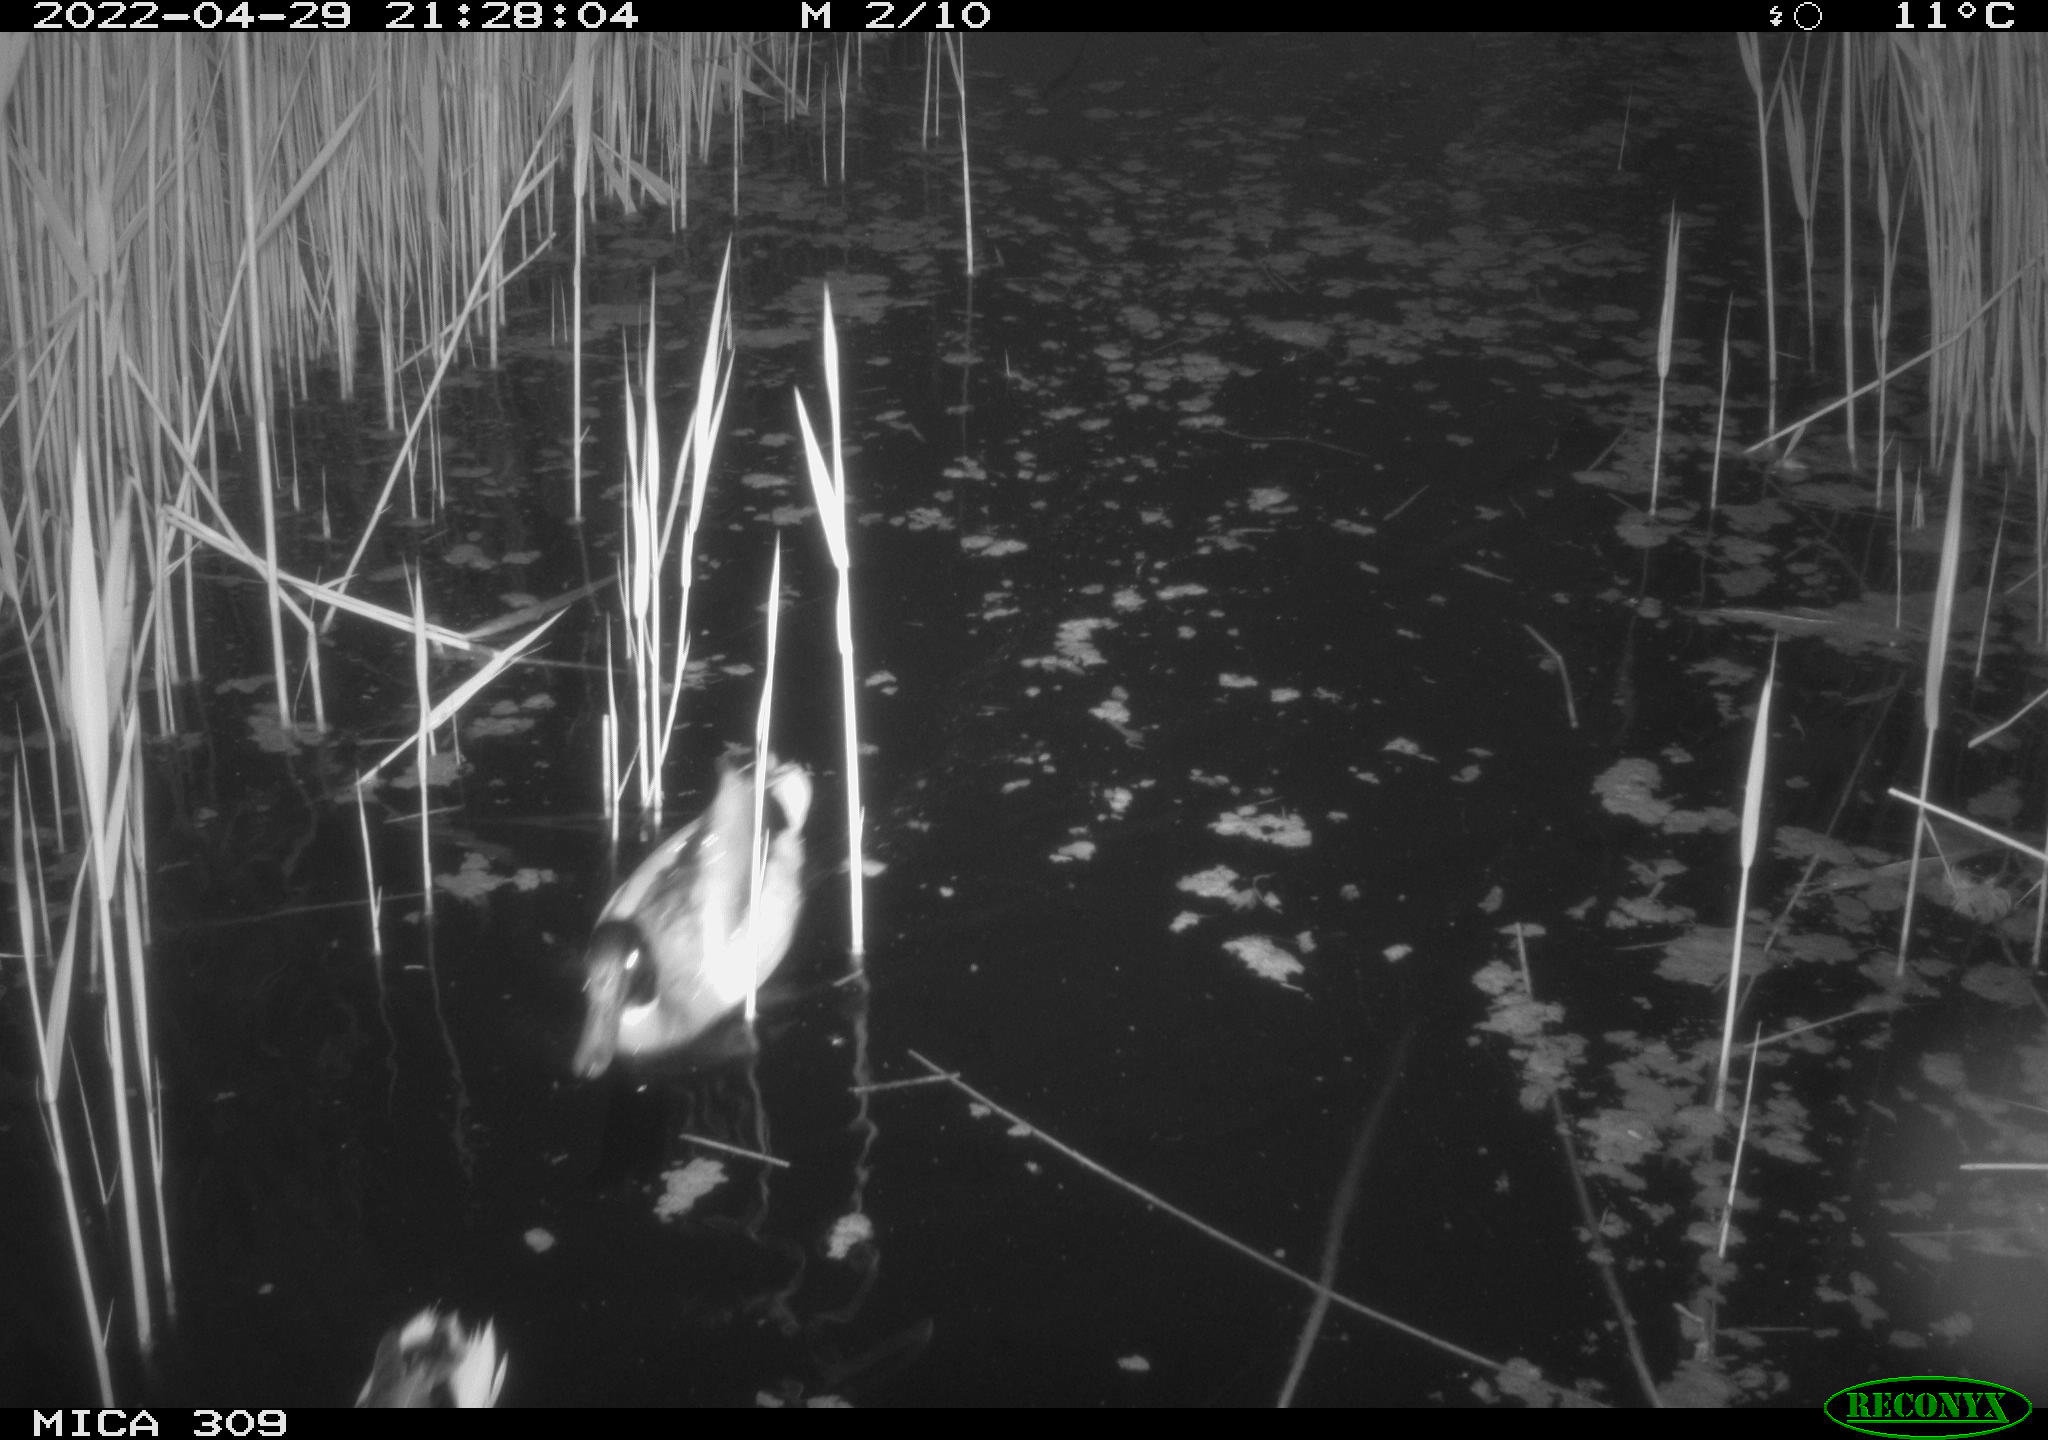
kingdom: Animalia
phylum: Chordata
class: Aves
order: Anseriformes
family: Anatidae
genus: Anas
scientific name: Anas platyrhynchos
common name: Mallard
